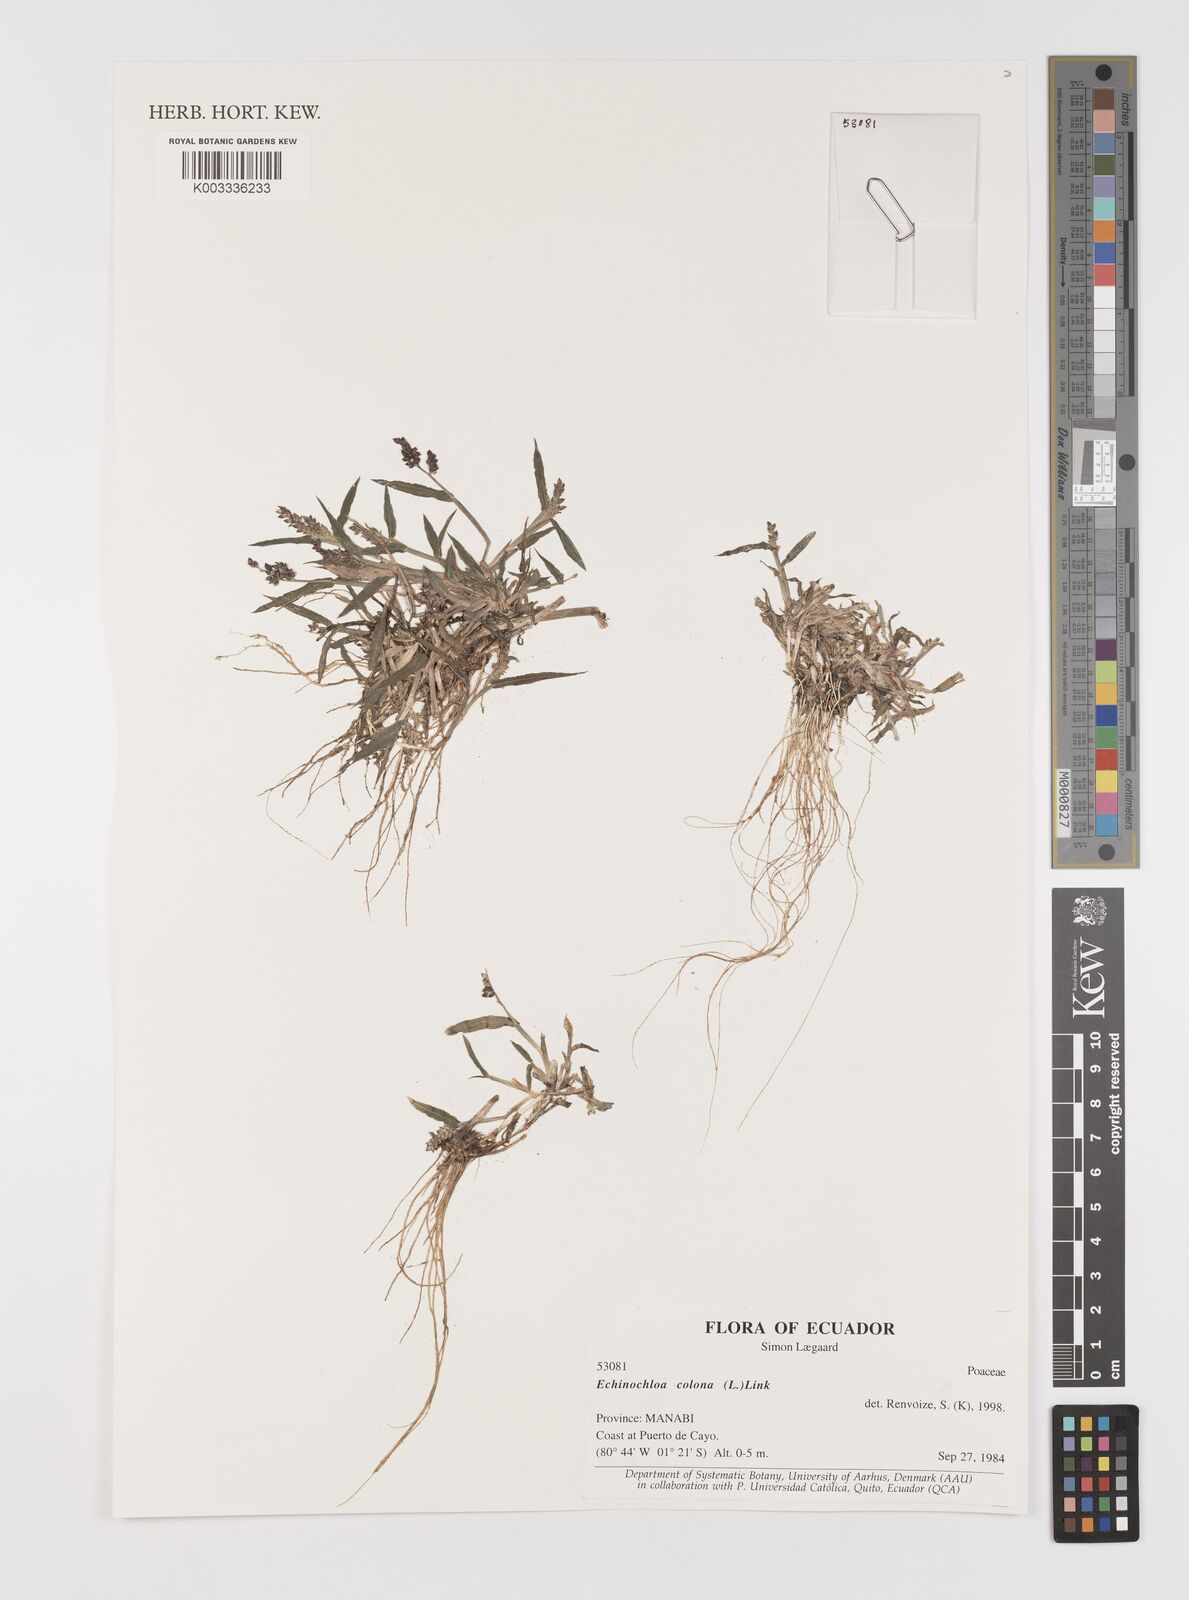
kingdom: Plantae
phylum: Tracheophyta
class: Liliopsida
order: Poales
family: Poaceae
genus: Echinochloa
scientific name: Echinochloa colonum
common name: Jungle rice
